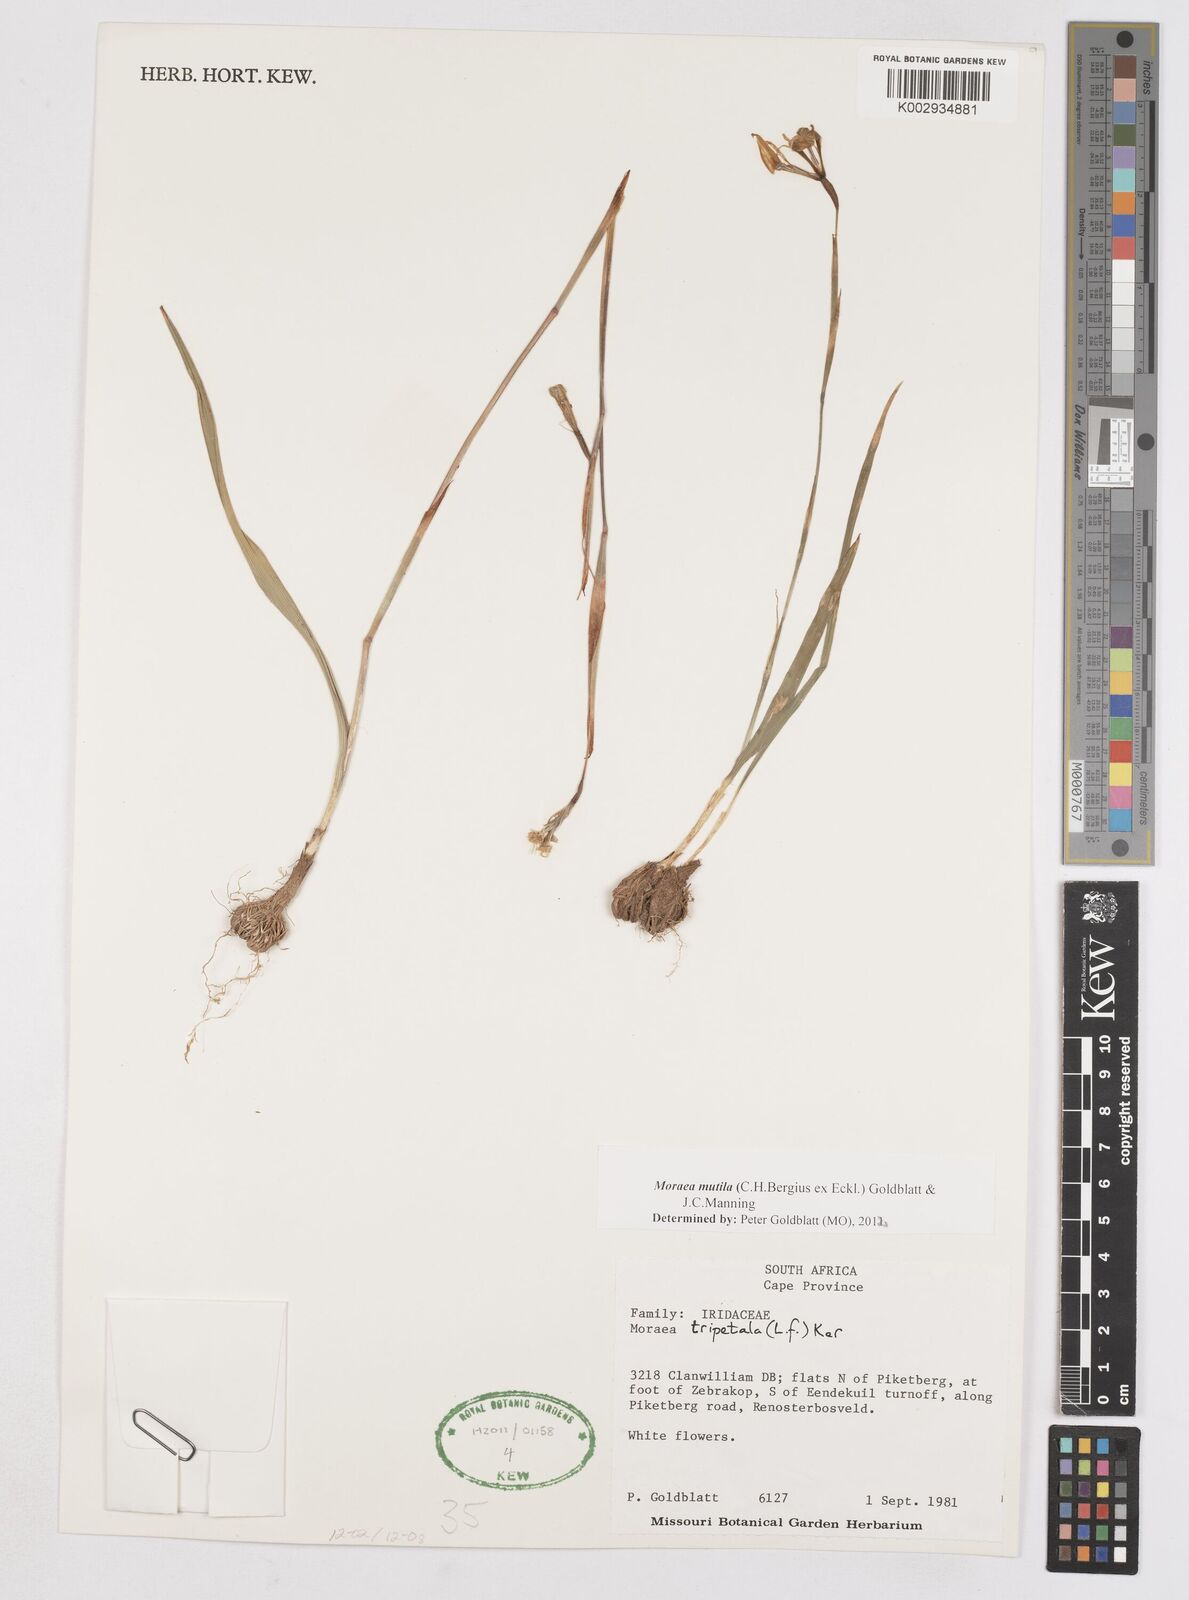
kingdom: Plantae
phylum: Tracheophyta
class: Liliopsida
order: Asparagales
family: Iridaceae
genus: Moraea
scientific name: Moraea punctata
